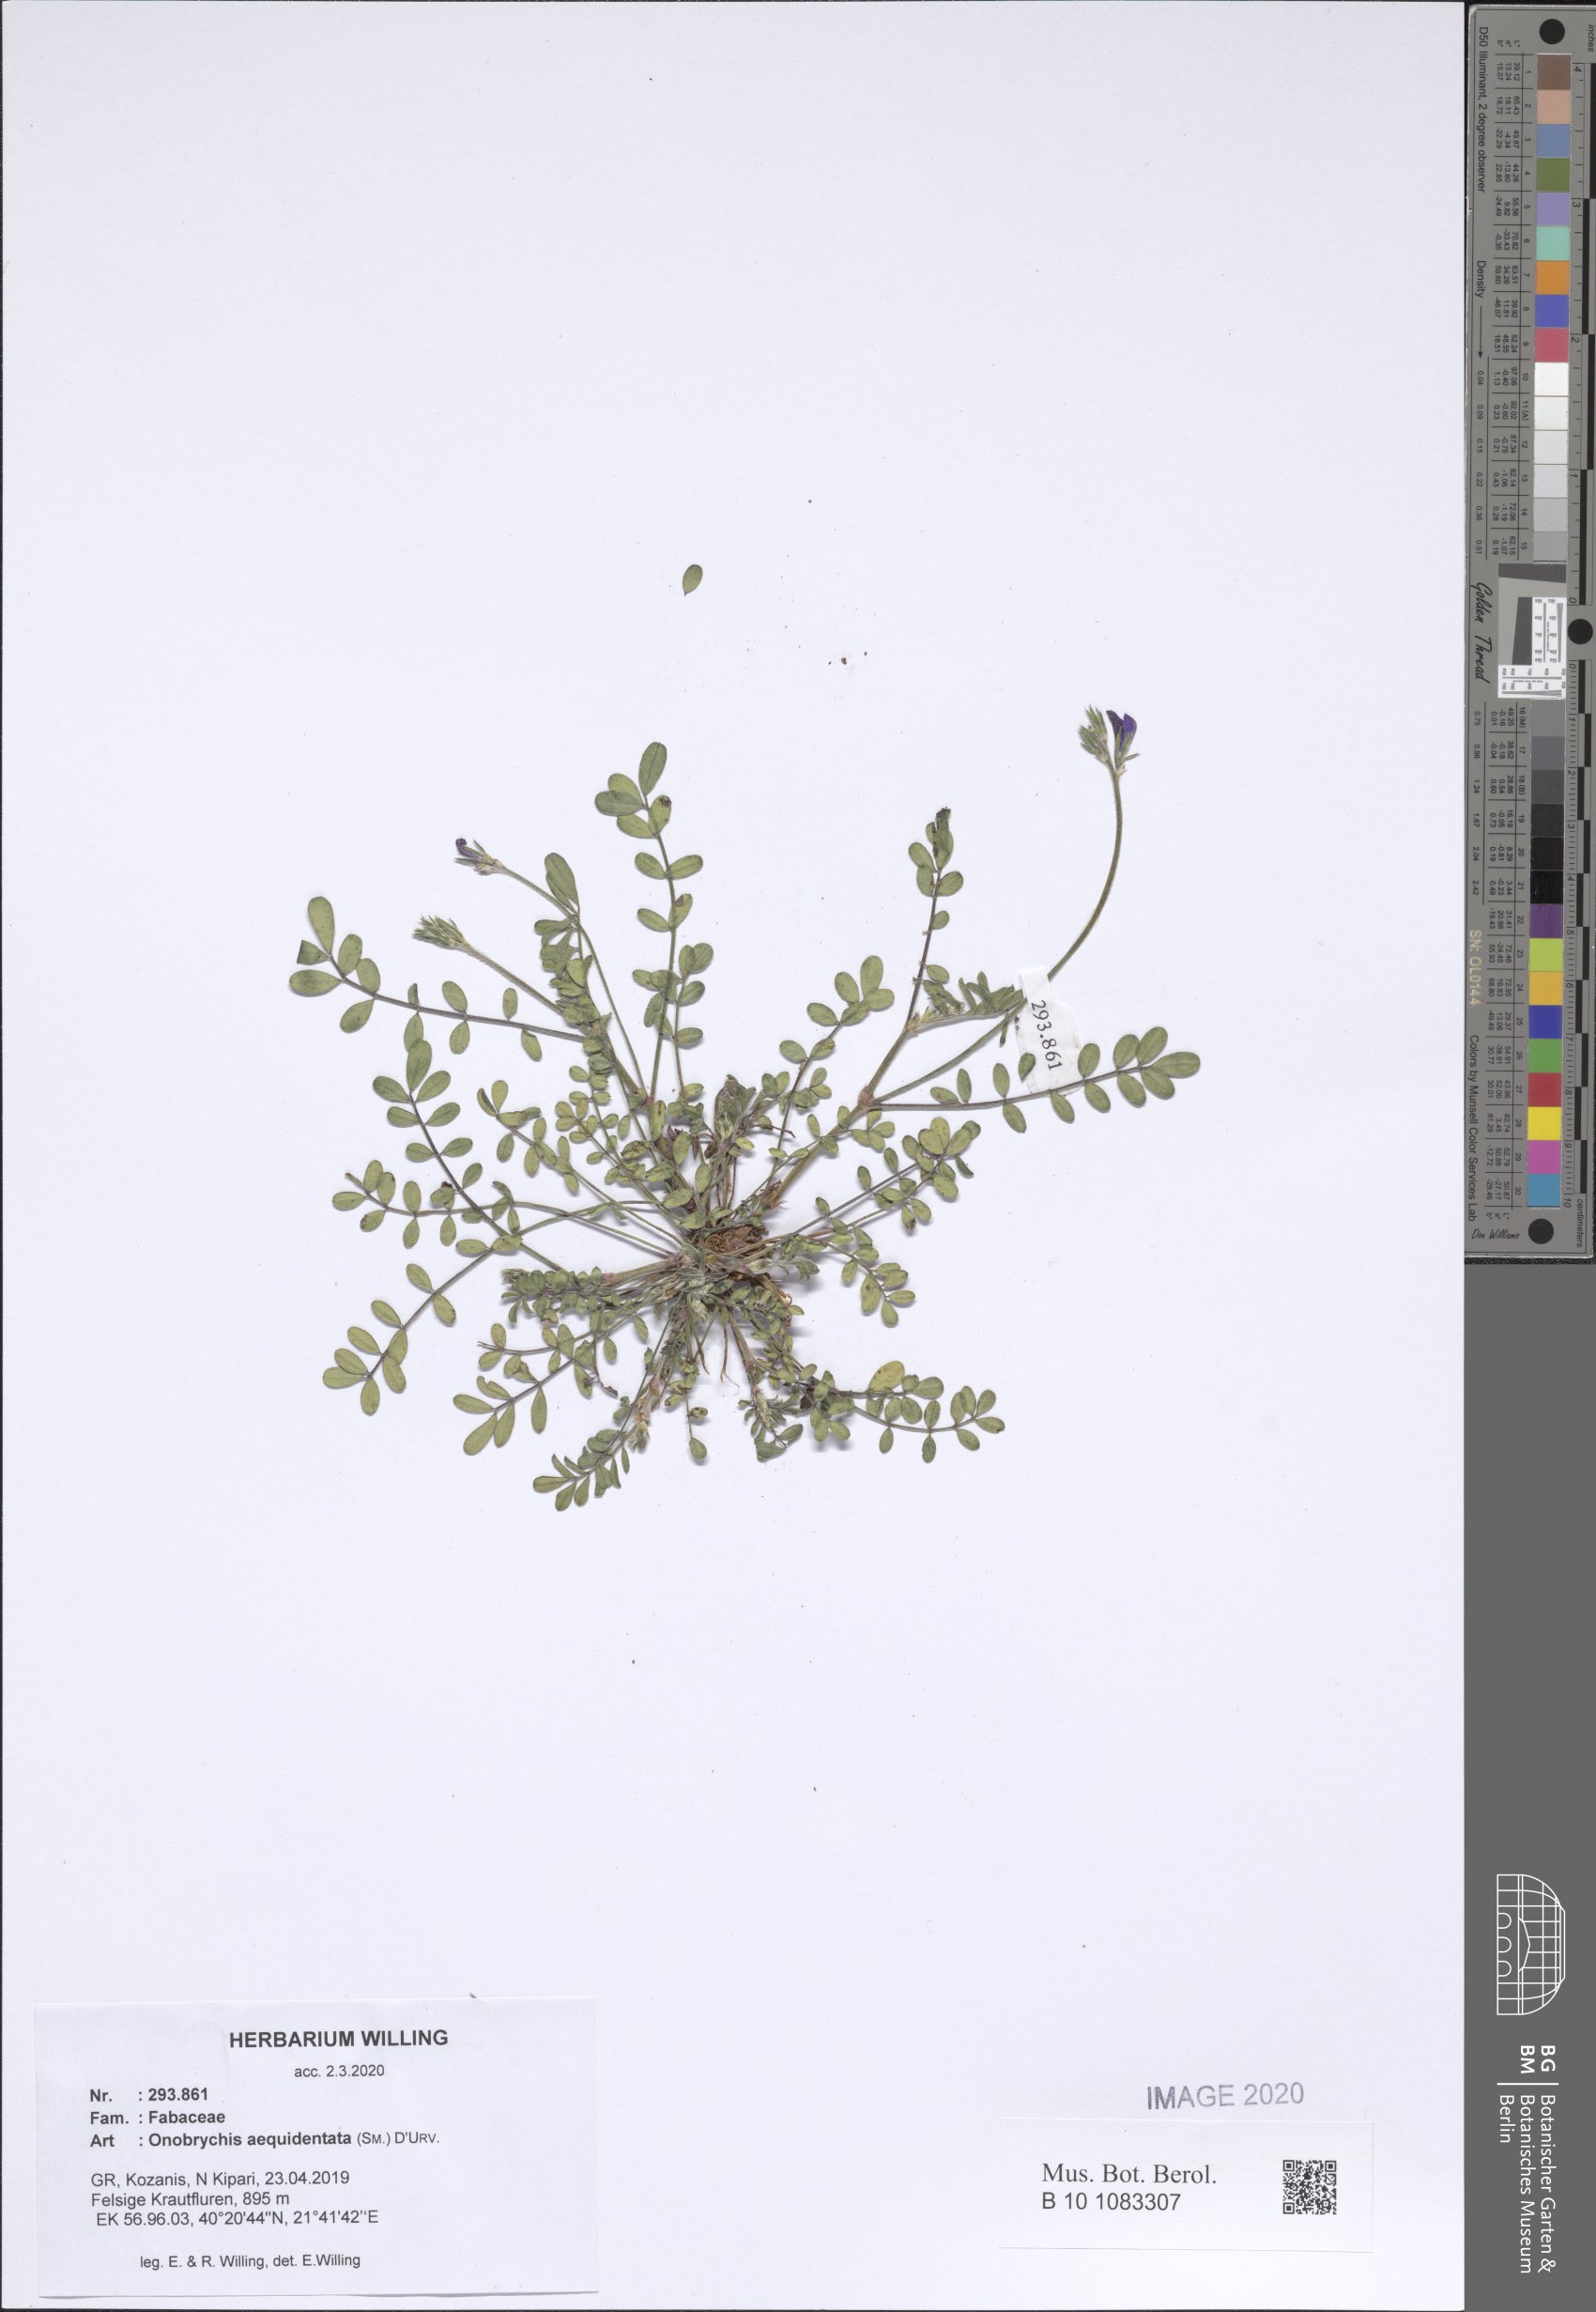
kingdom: Plantae
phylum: Tracheophyta
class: Magnoliopsida
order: Fabales
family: Fabaceae
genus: Onobrychis
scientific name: Onobrychis aequidentata
